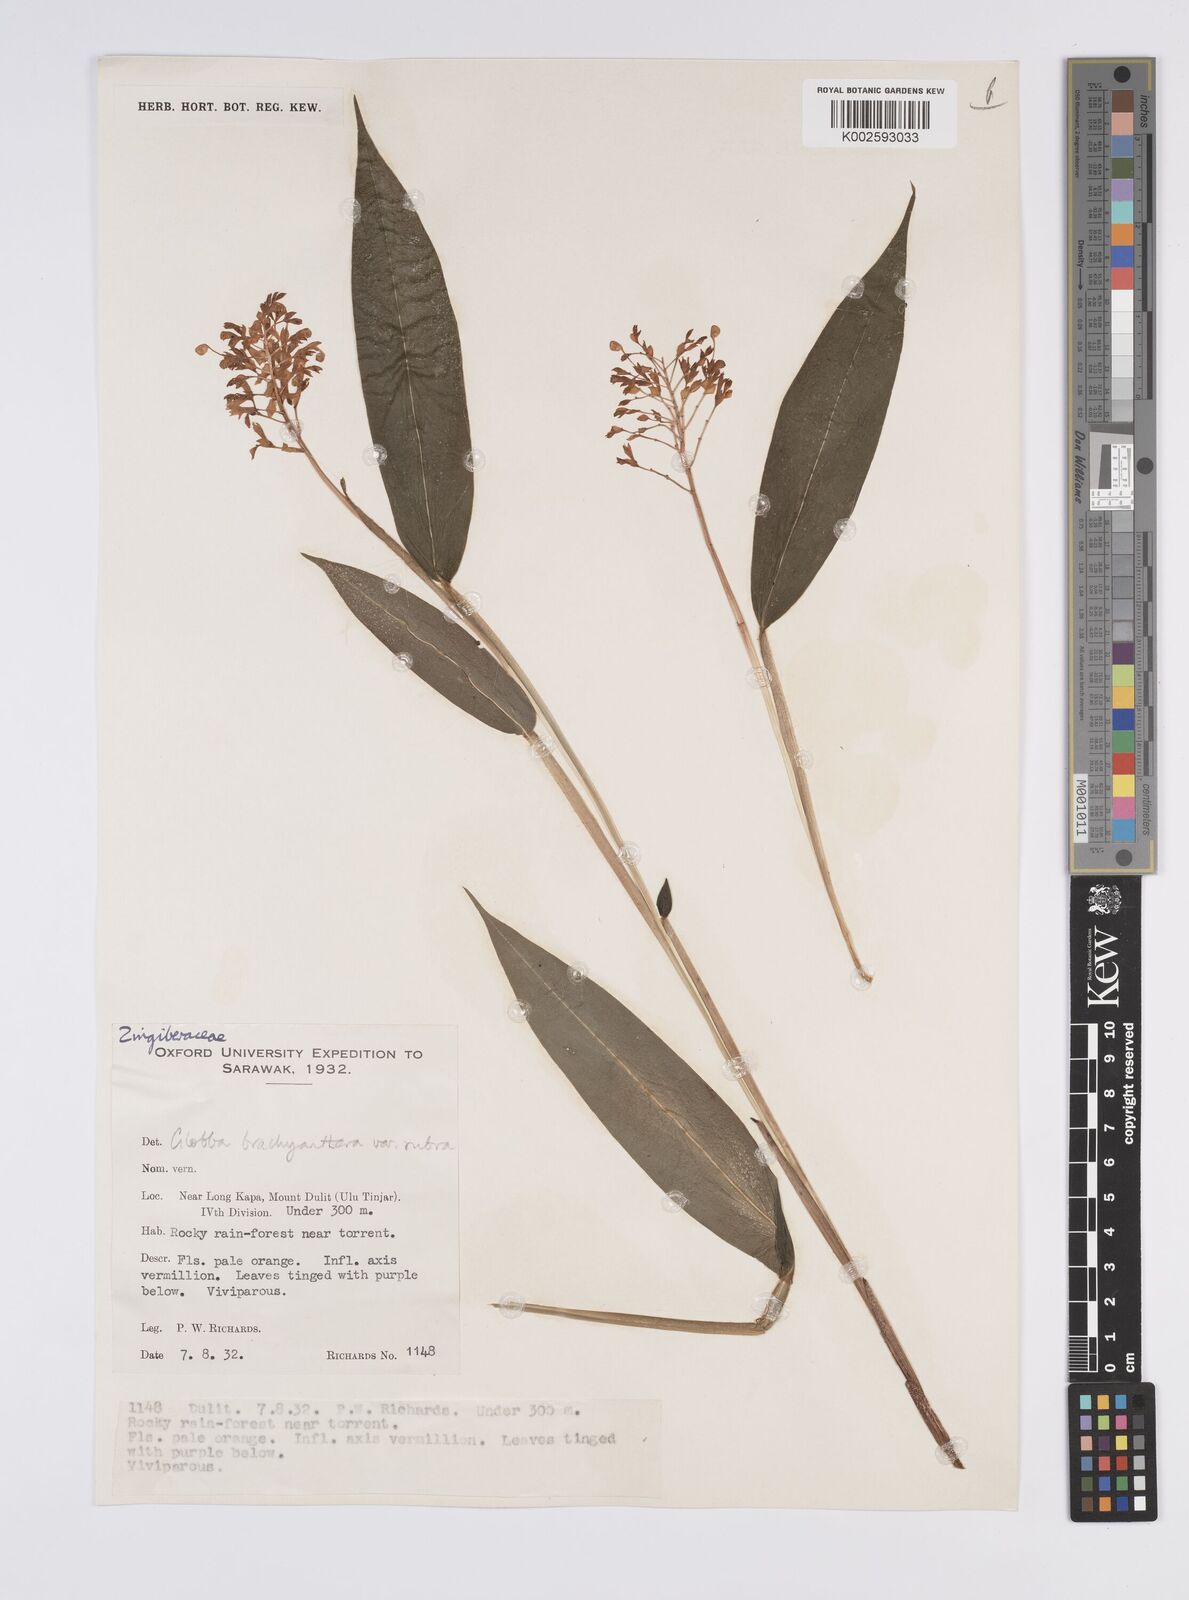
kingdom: Plantae
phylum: Tracheophyta
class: Liliopsida
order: Zingiberales
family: Zingiberaceae
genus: Globba
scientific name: Globba brachyanthera
